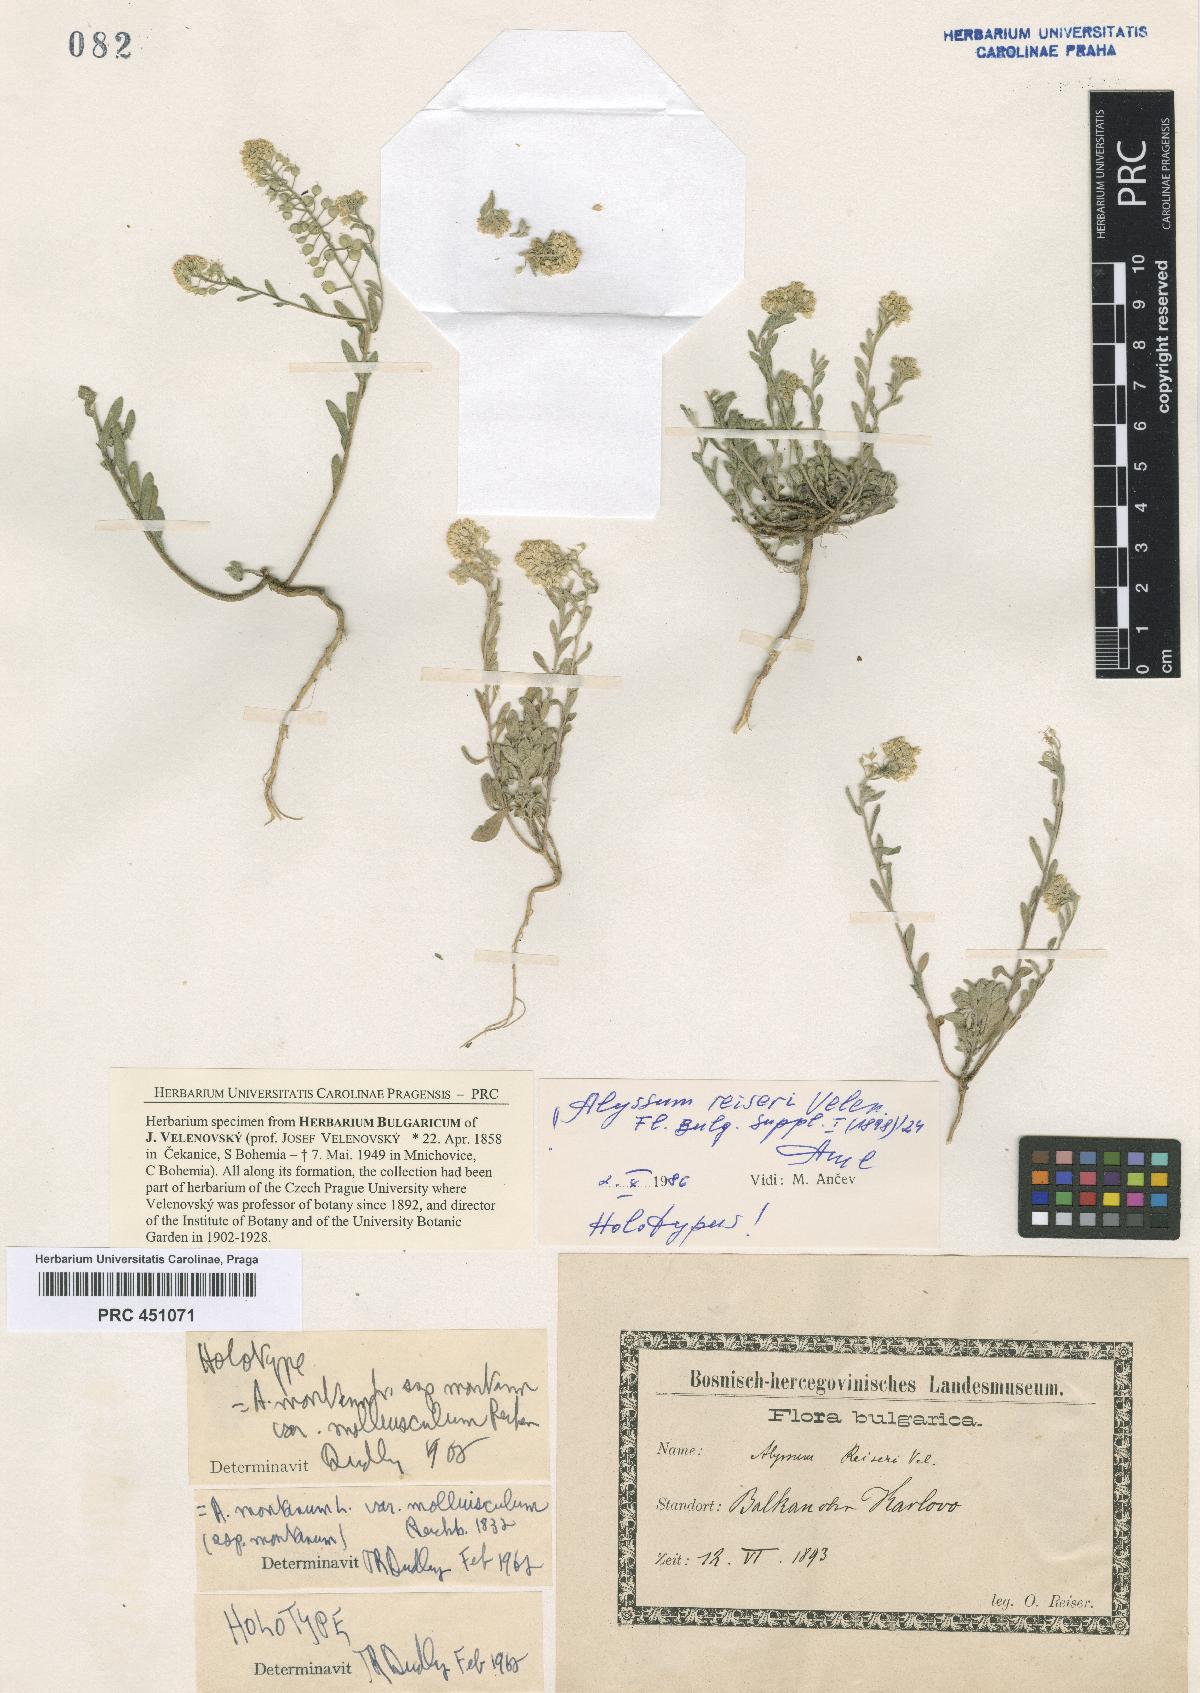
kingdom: Plantae
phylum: Tracheophyta
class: Magnoliopsida
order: Brassicales
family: Brassicaceae
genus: Alyssum
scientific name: Alyssum reiseri
